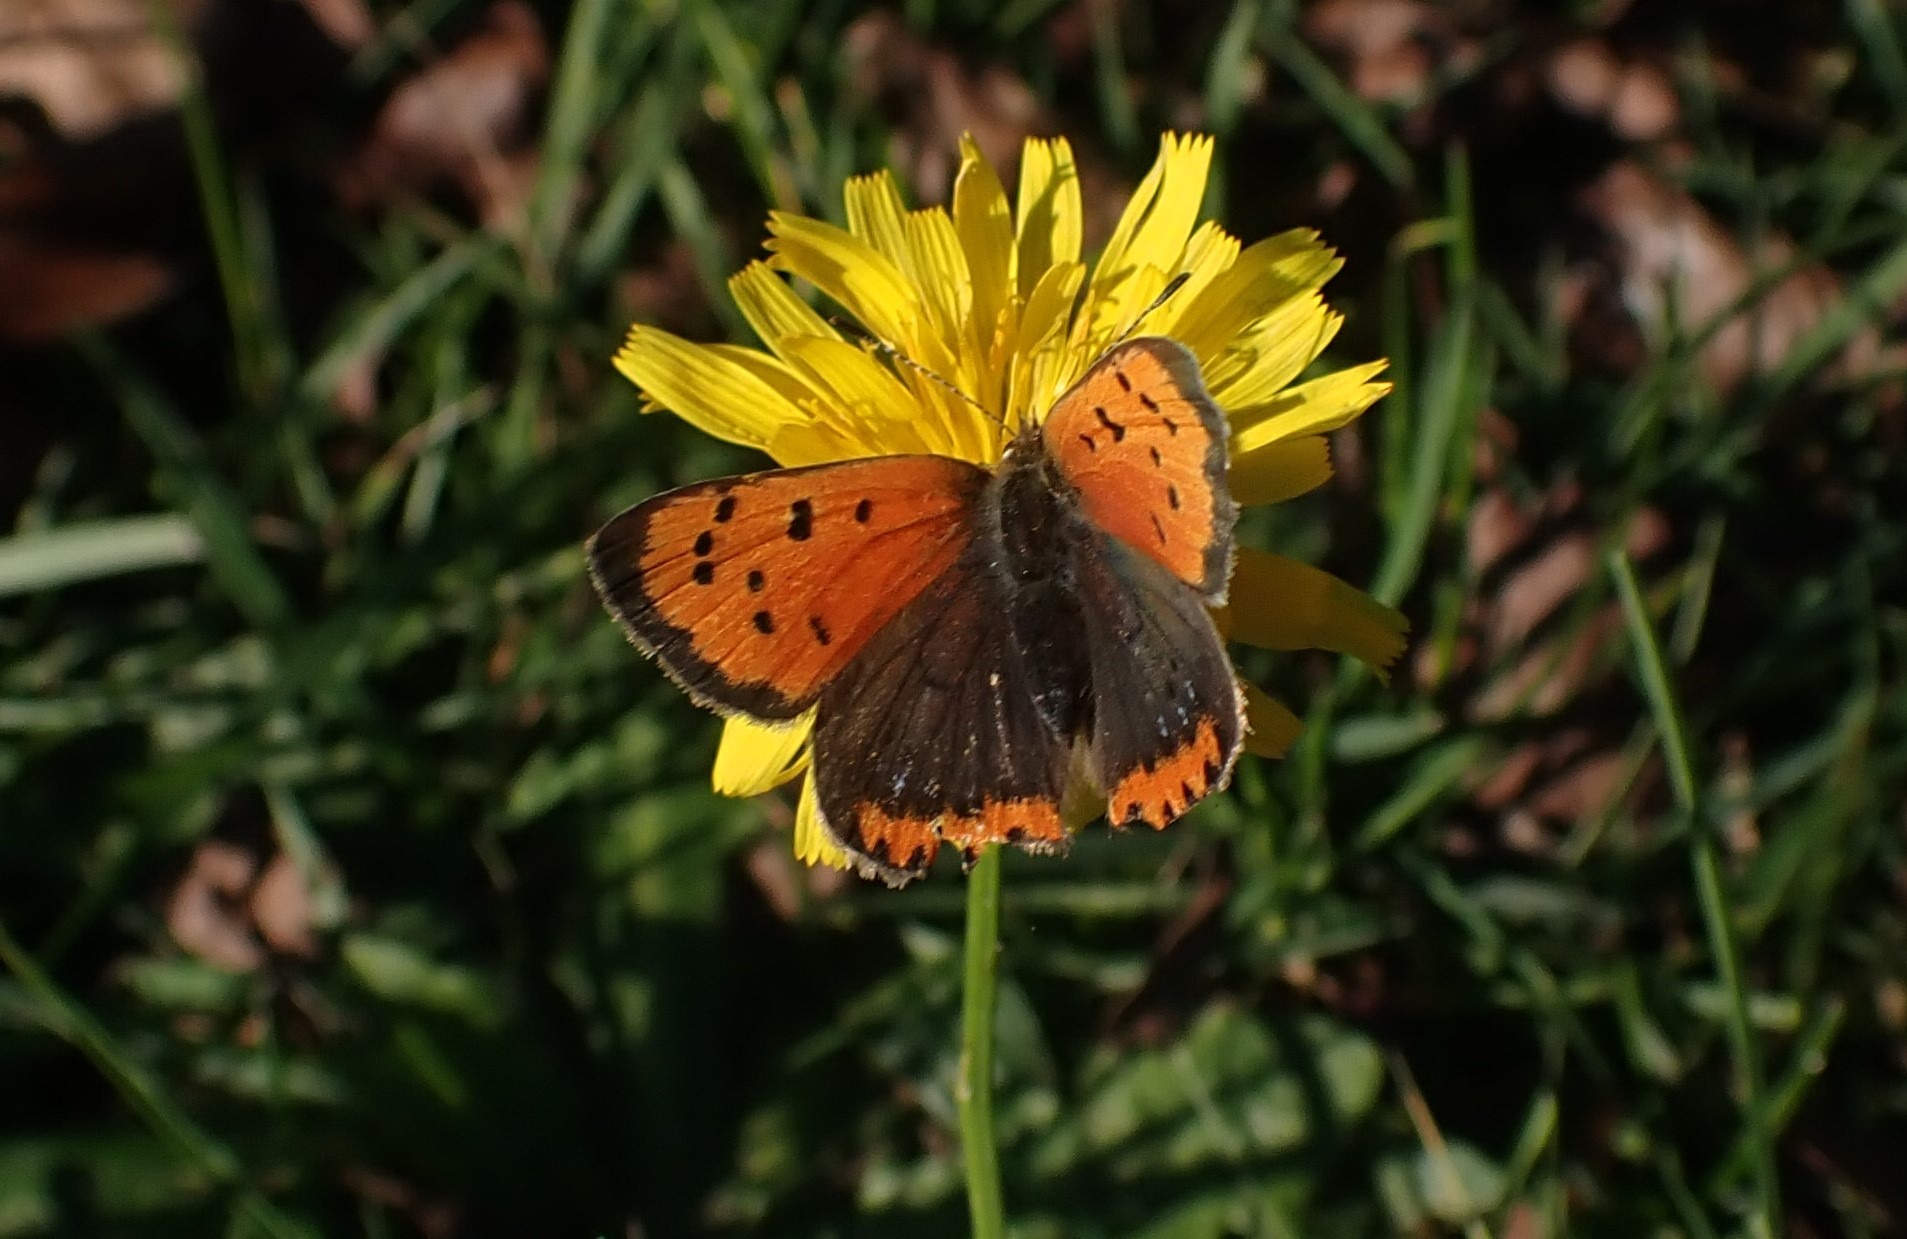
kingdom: Animalia
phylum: Arthropoda
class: Insecta
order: Lepidoptera
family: Lycaenidae
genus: Lycaena
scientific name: Lycaena phlaeas
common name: Lille ildfugl
